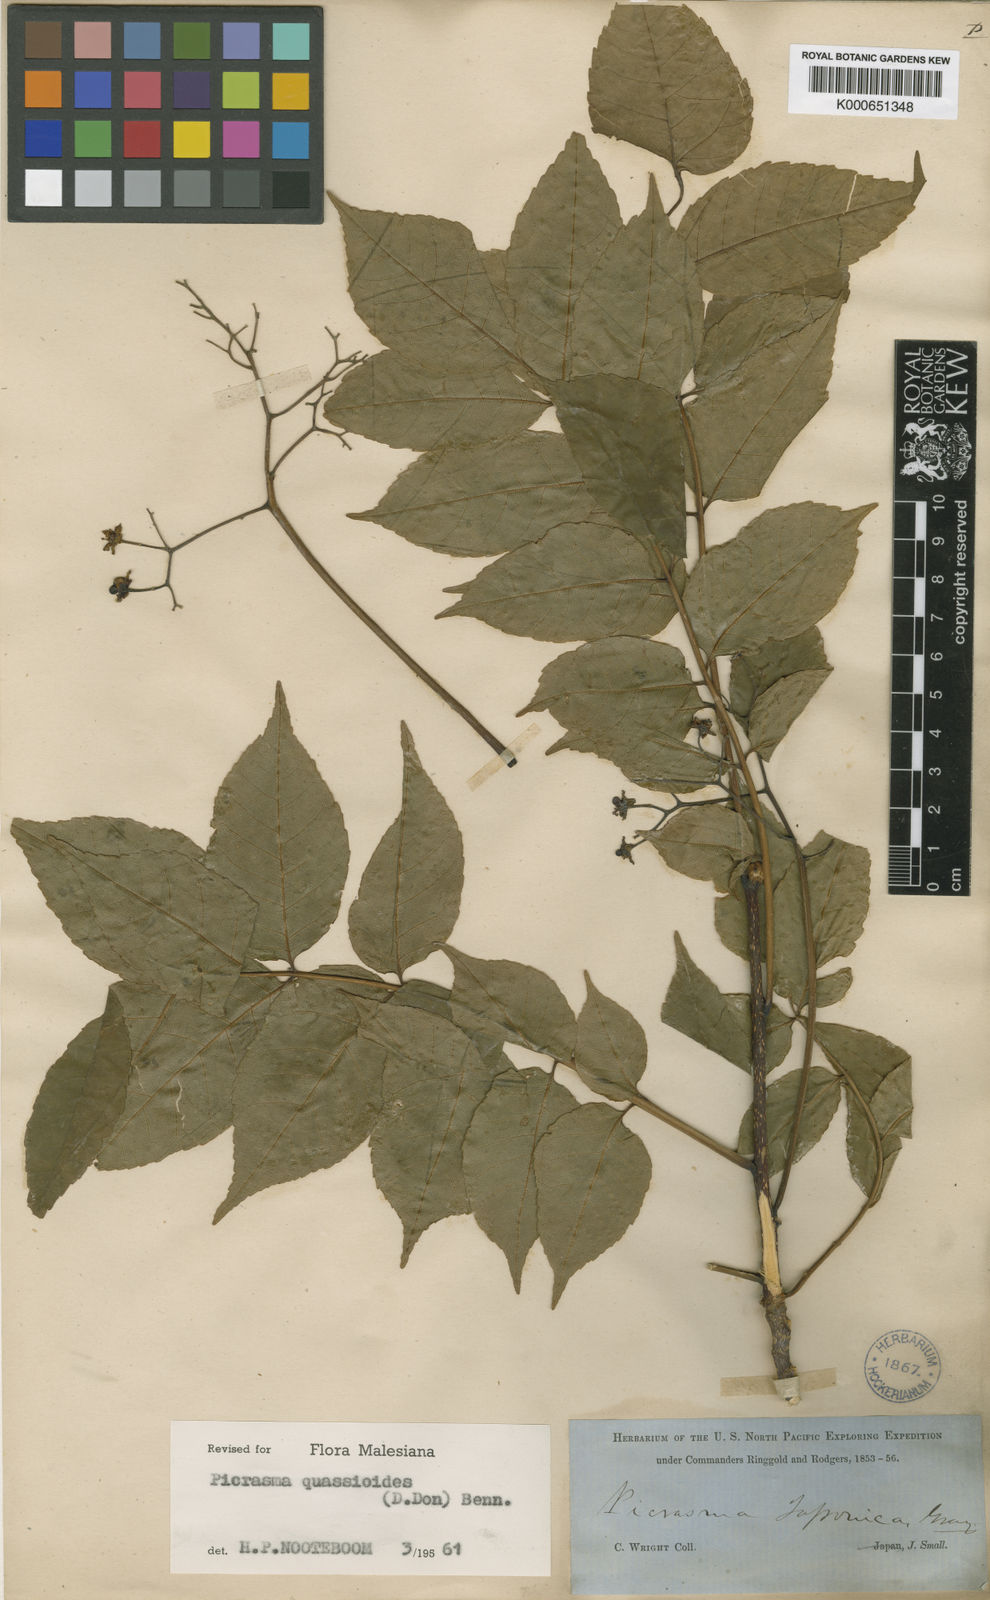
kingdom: Plantae
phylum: Tracheophyta
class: Magnoliopsida
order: Sapindales
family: Simaroubaceae
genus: Picrasma
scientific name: Picrasma quassioides
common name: Shurni
